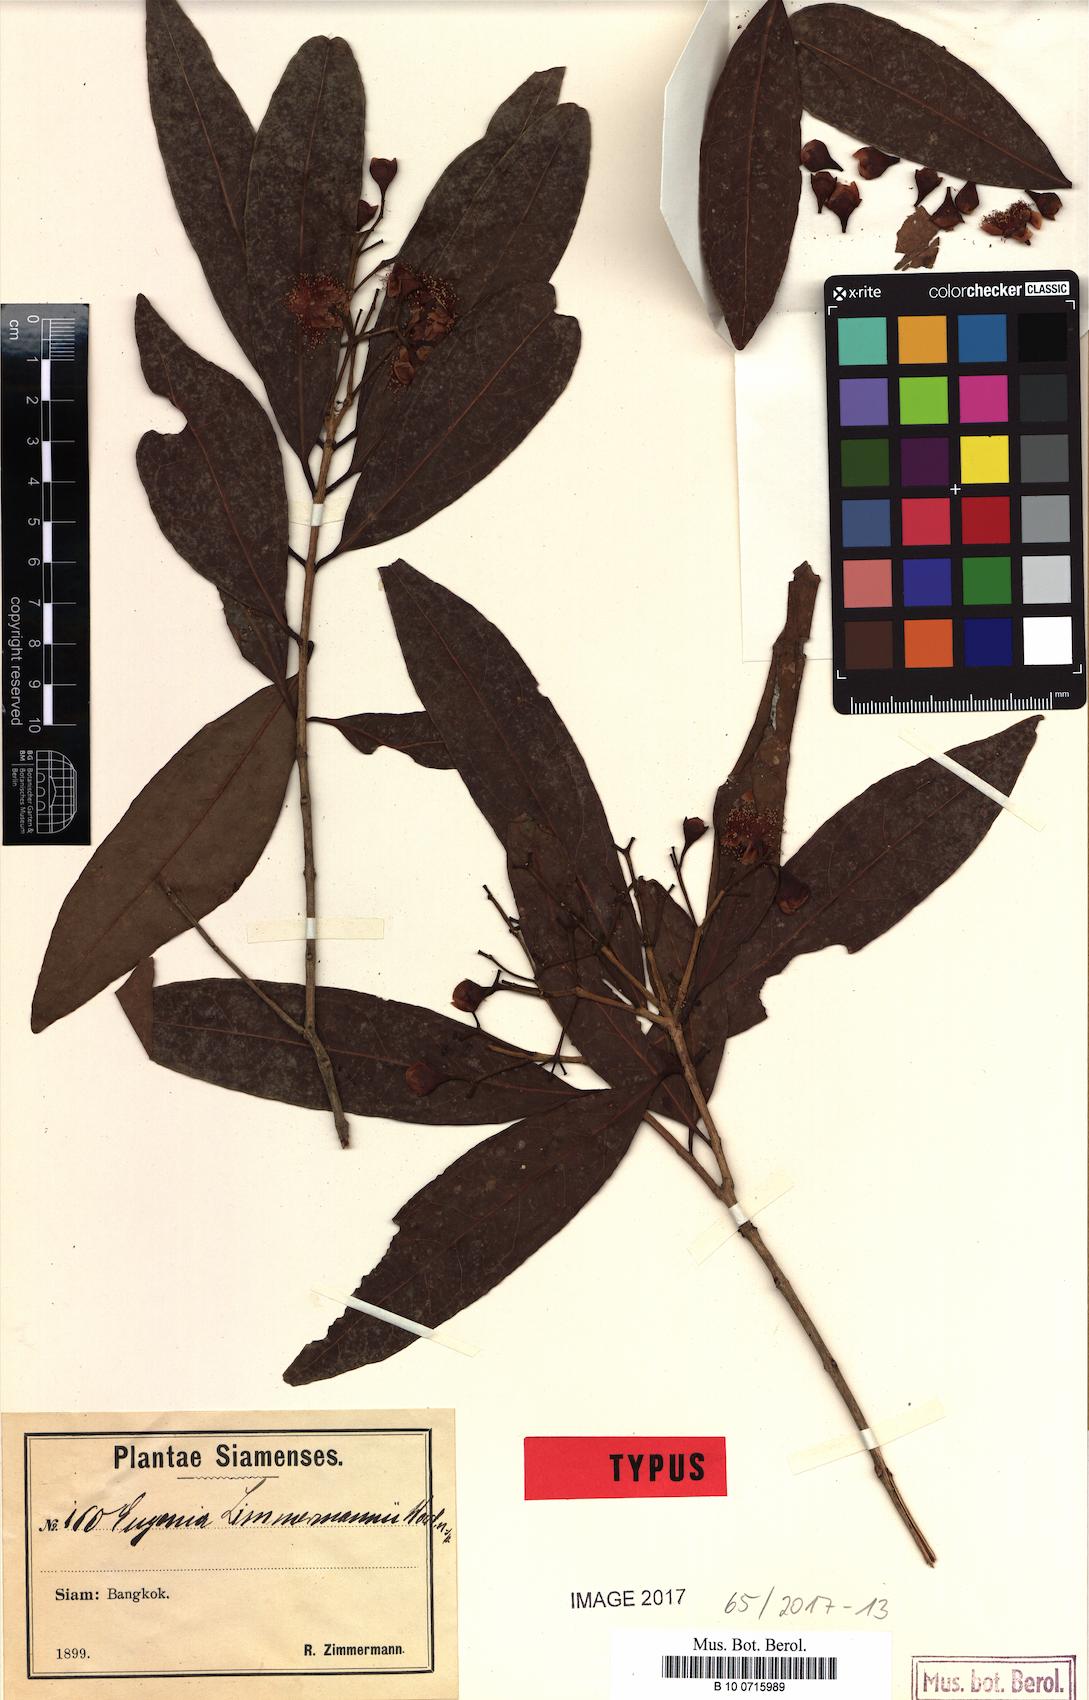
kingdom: Plantae
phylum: Tracheophyta
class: Magnoliopsida
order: Myrtales
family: Myrtaceae
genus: Syzygium
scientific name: Syzygium zimmermannii
